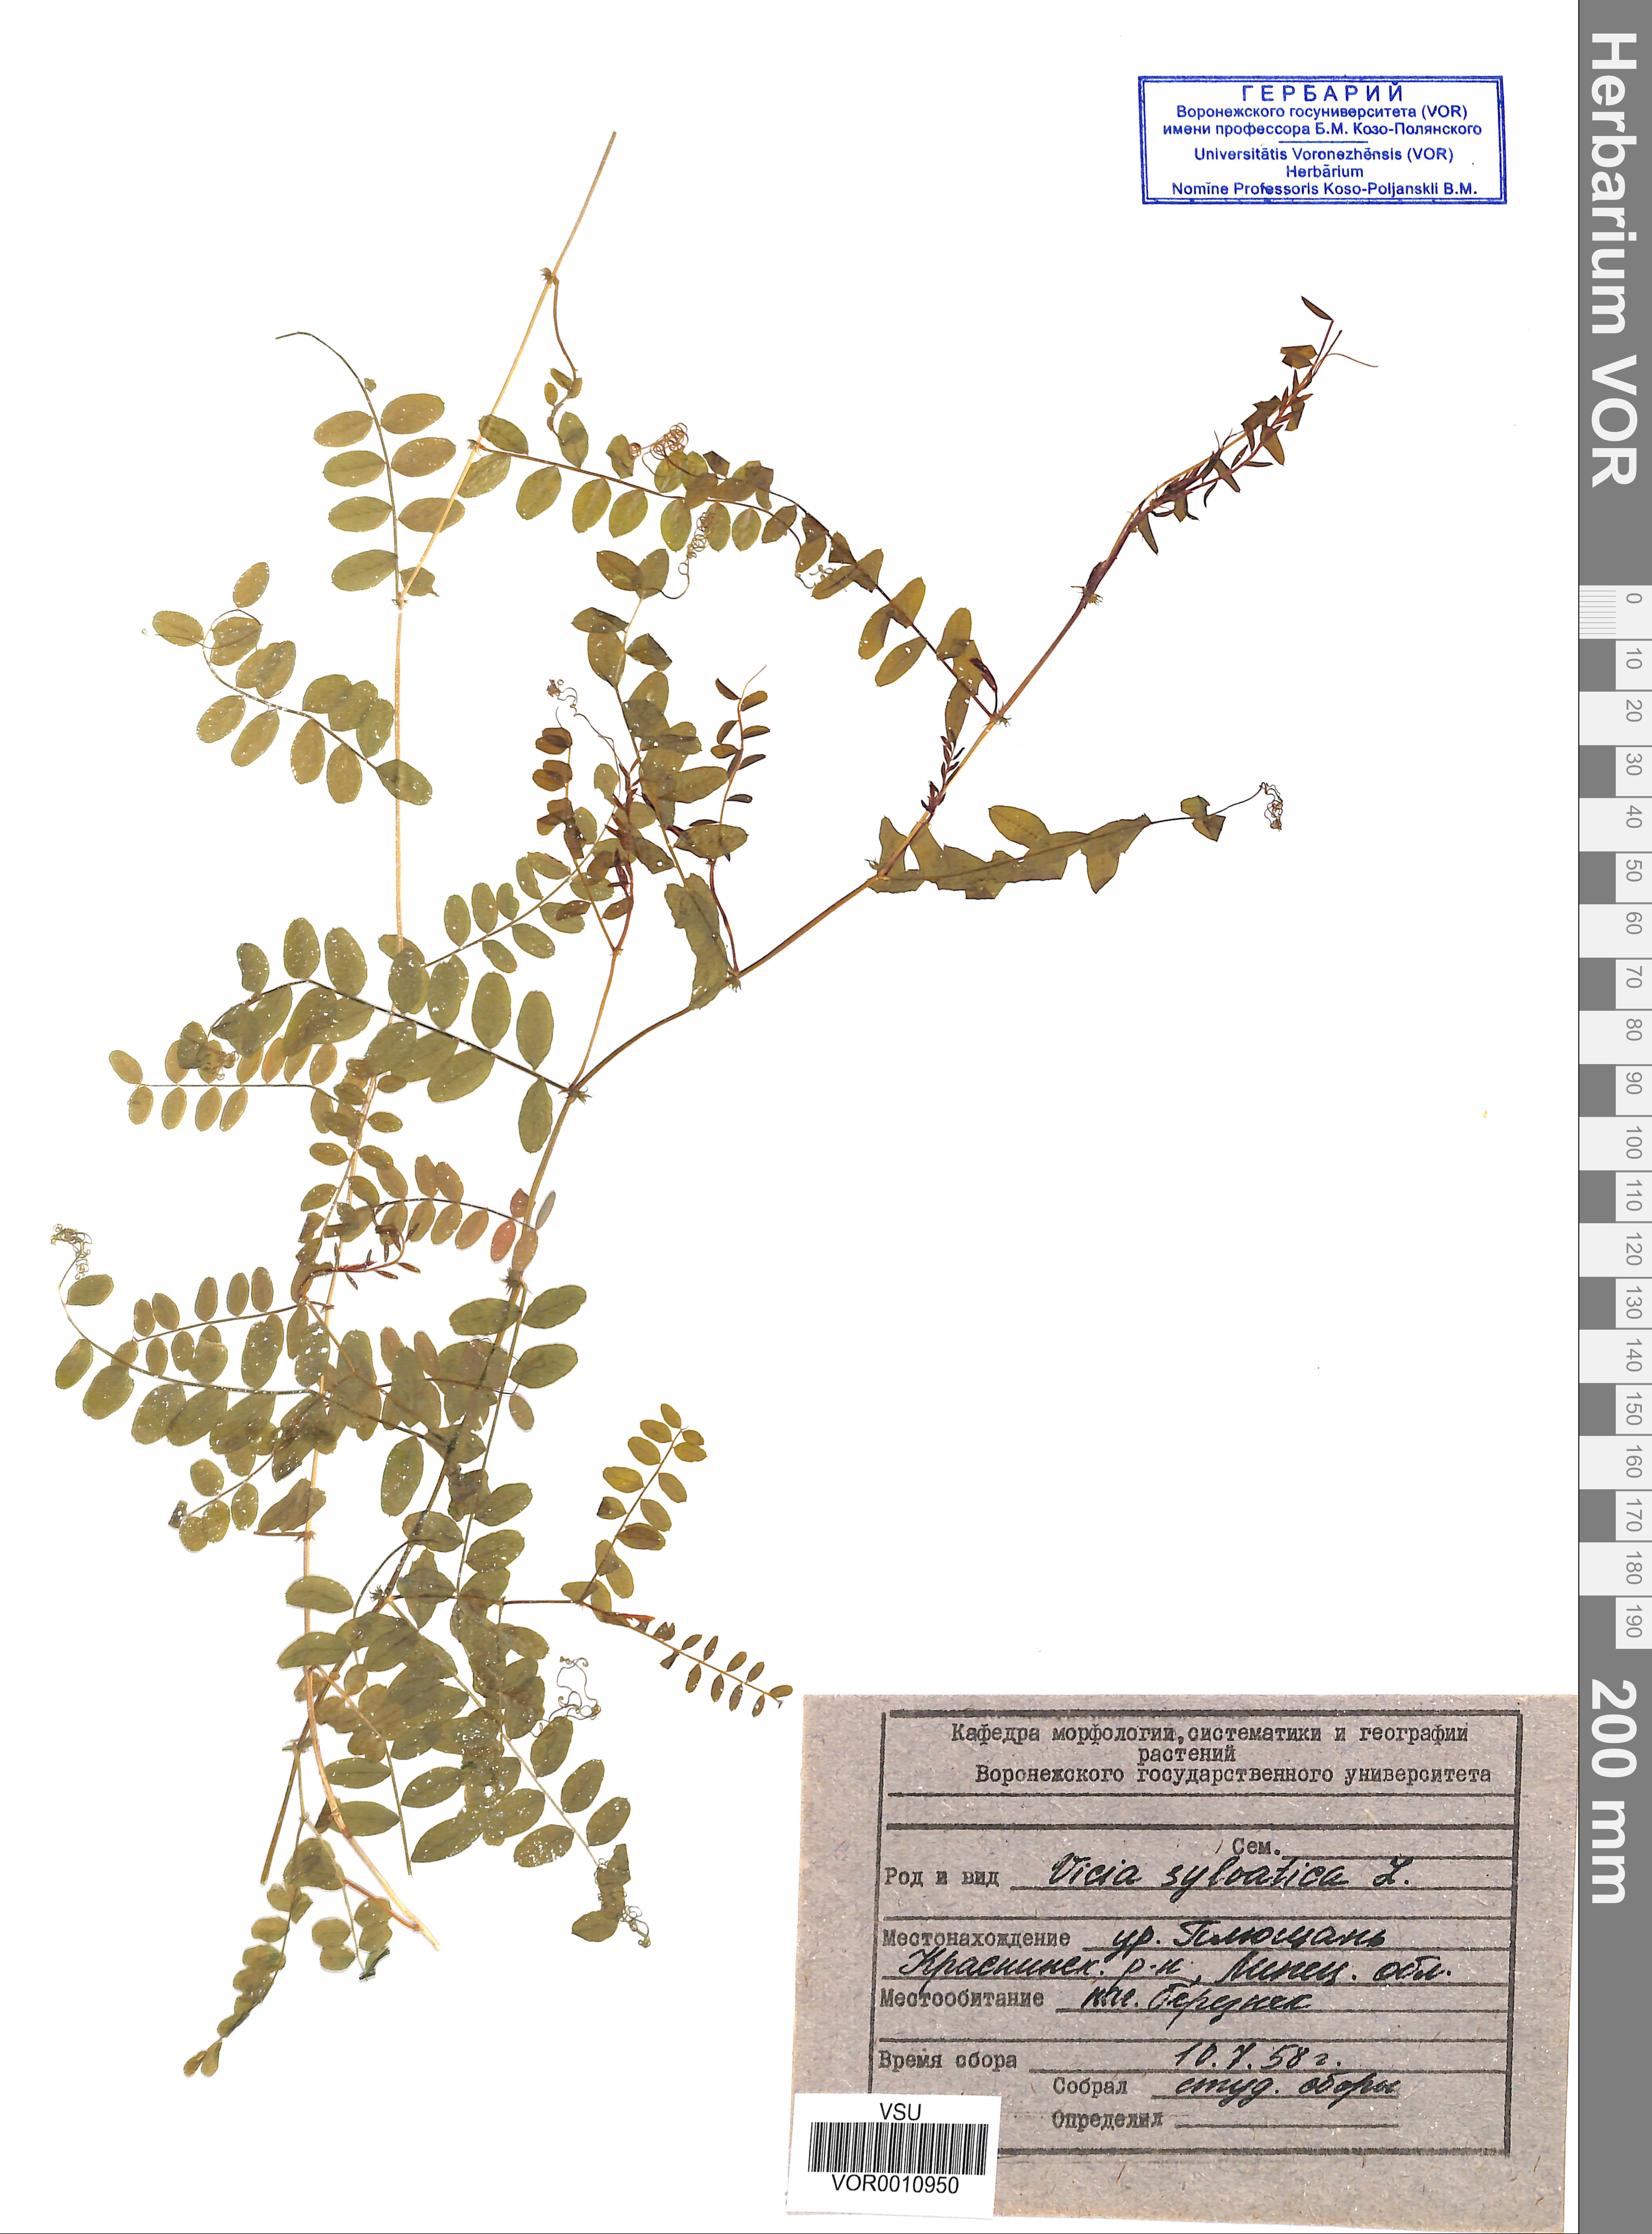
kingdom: Plantae
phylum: Tracheophyta
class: Magnoliopsida
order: Fabales
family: Fabaceae
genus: Vicia
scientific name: Vicia sylvatica
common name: Wood vetch
